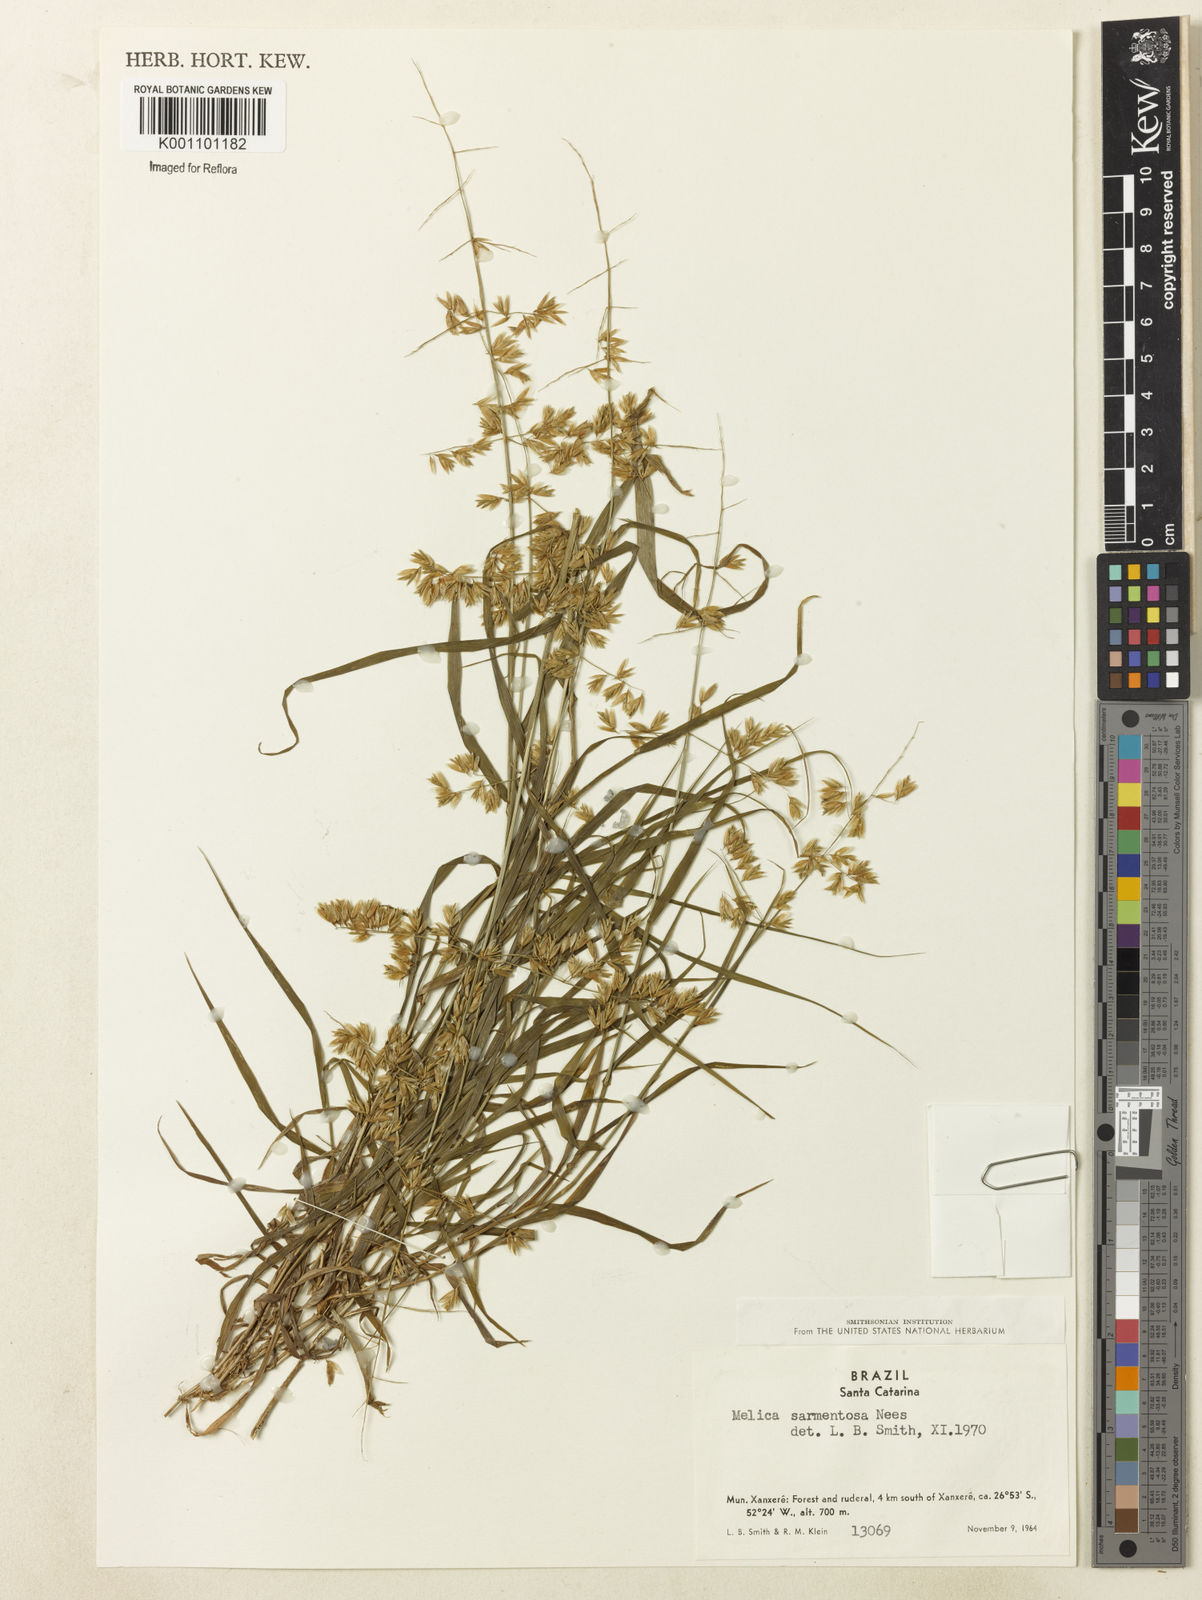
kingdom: Plantae
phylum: Tracheophyta
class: Liliopsida
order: Poales
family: Poaceae
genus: Melica
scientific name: Melica sarmentosa
